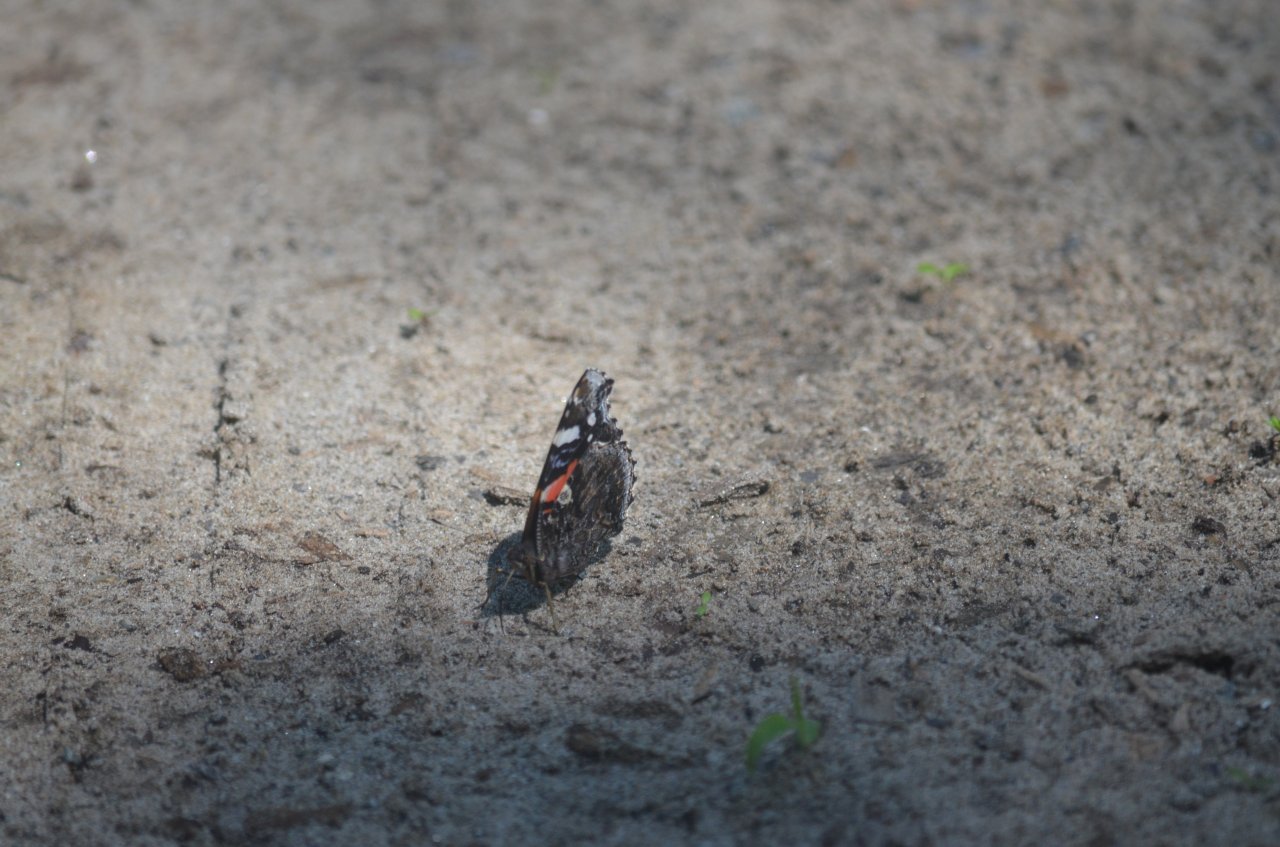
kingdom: Animalia
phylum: Arthropoda
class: Insecta
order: Lepidoptera
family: Nymphalidae
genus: Vanessa
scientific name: Vanessa atalanta
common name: Red Admiral
